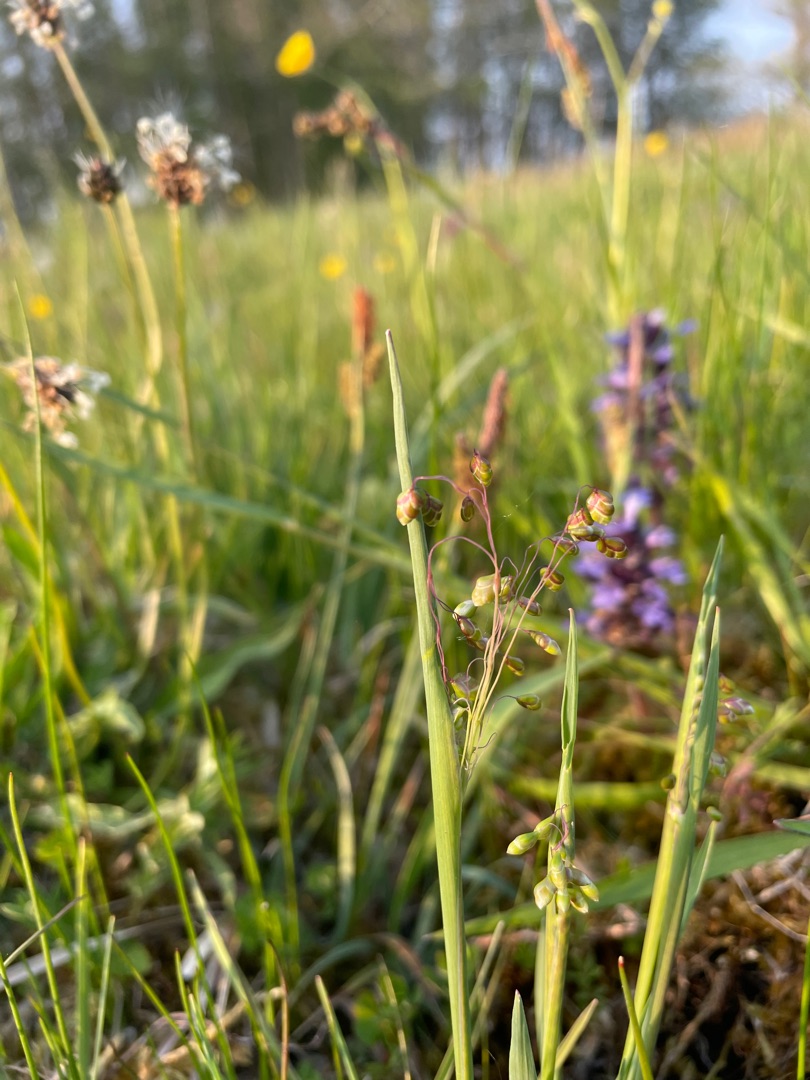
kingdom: Plantae
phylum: Tracheophyta
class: Liliopsida
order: Poales
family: Poaceae
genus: Briza
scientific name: Briza media
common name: Hjertegræs
